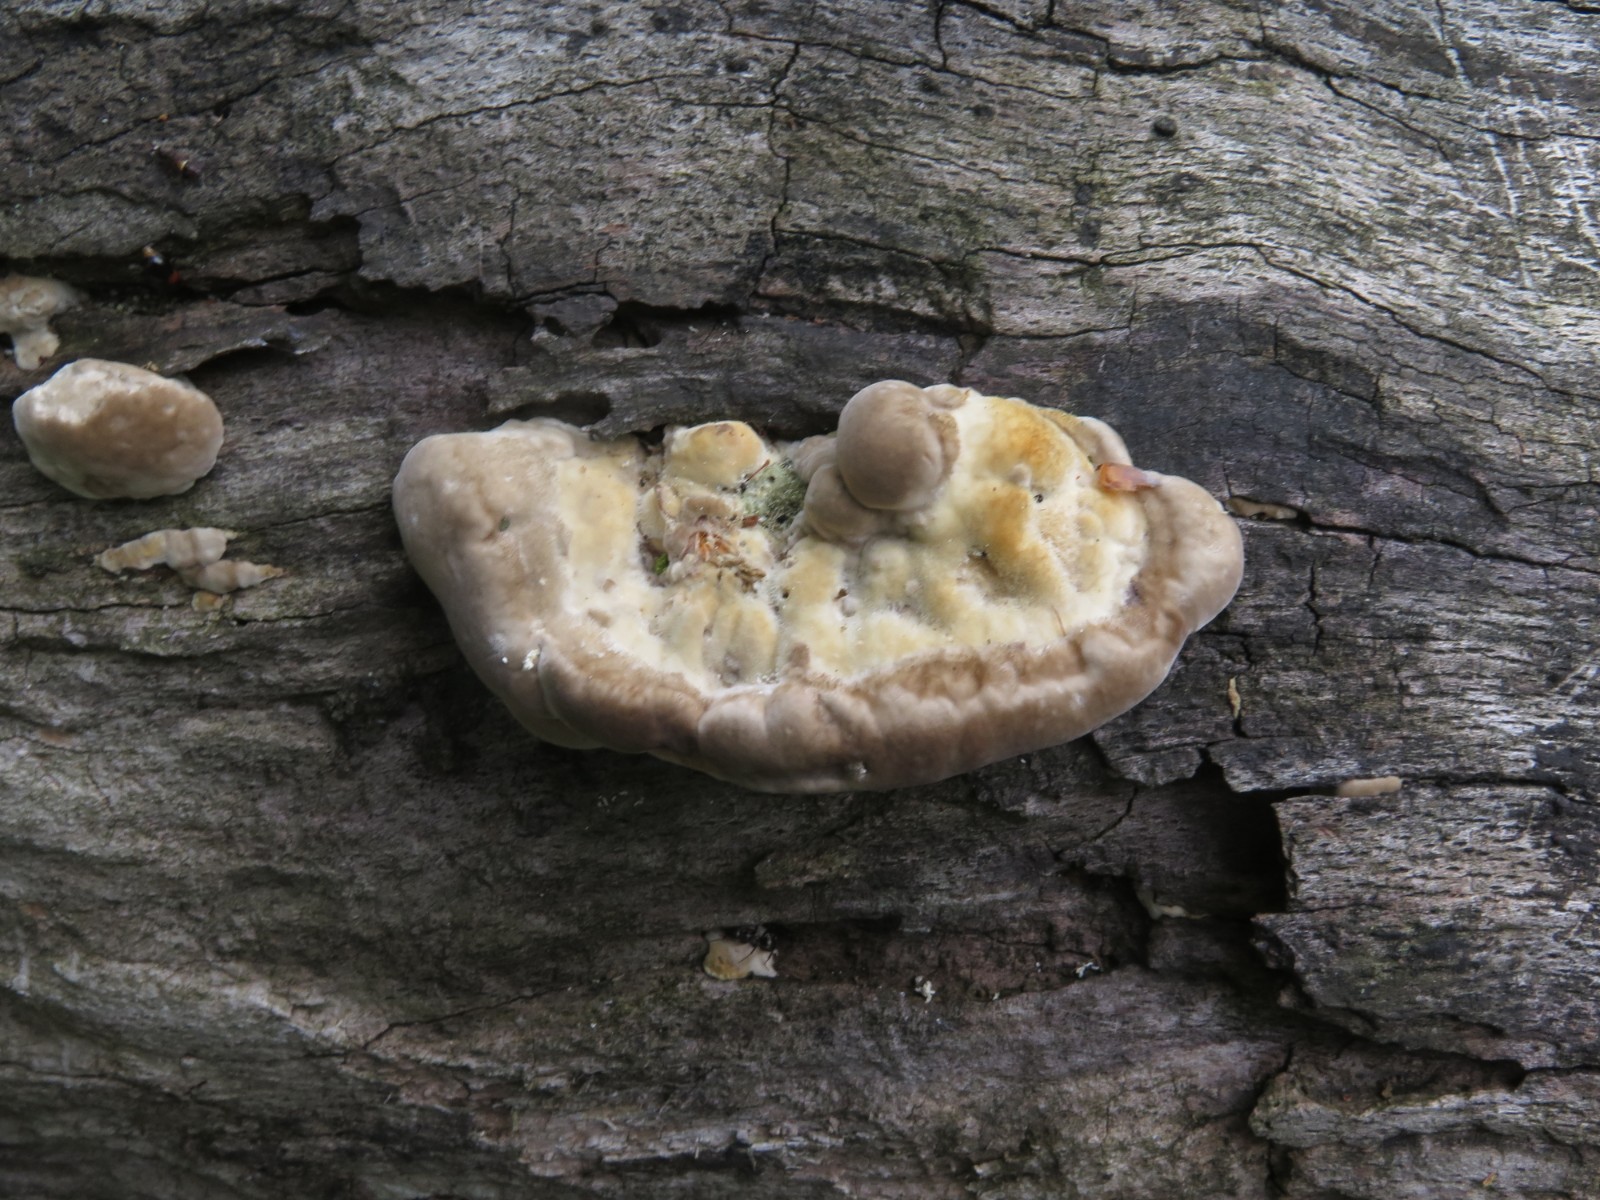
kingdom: Fungi
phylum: Basidiomycota
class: Agaricomycetes
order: Polyporales
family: Polyporaceae
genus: Trametes
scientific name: Trametes gibbosa
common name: puklet læderporesvamp
